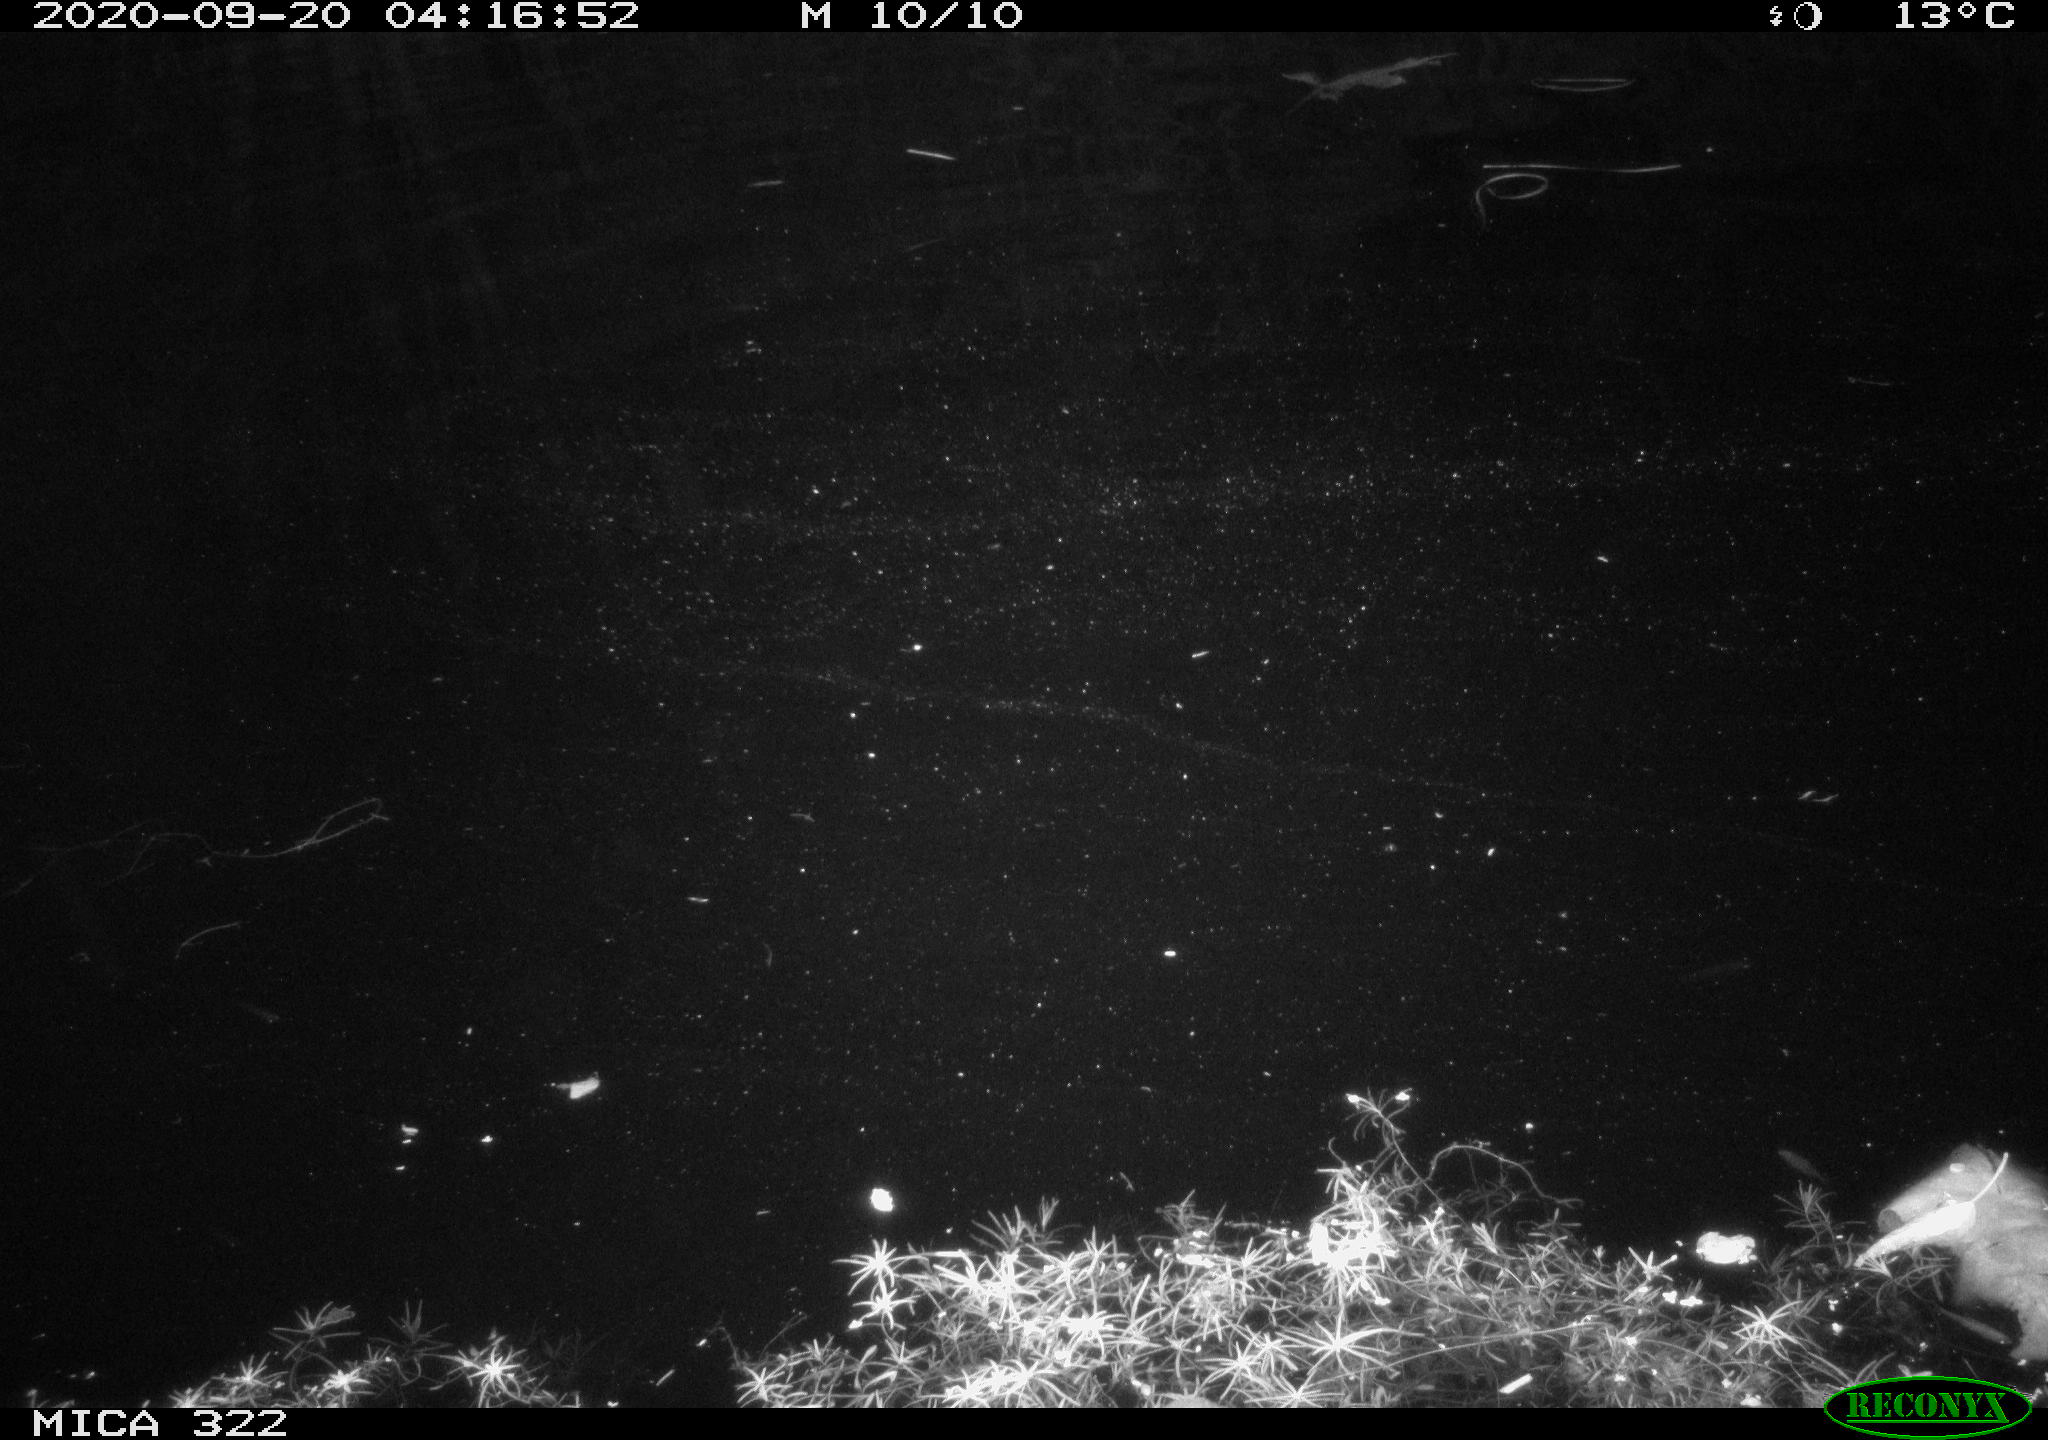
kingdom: Animalia
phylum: Chordata
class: Mammalia
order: Rodentia
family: Muridae
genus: Rattus
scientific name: Rattus norvegicus
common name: Brown rat
